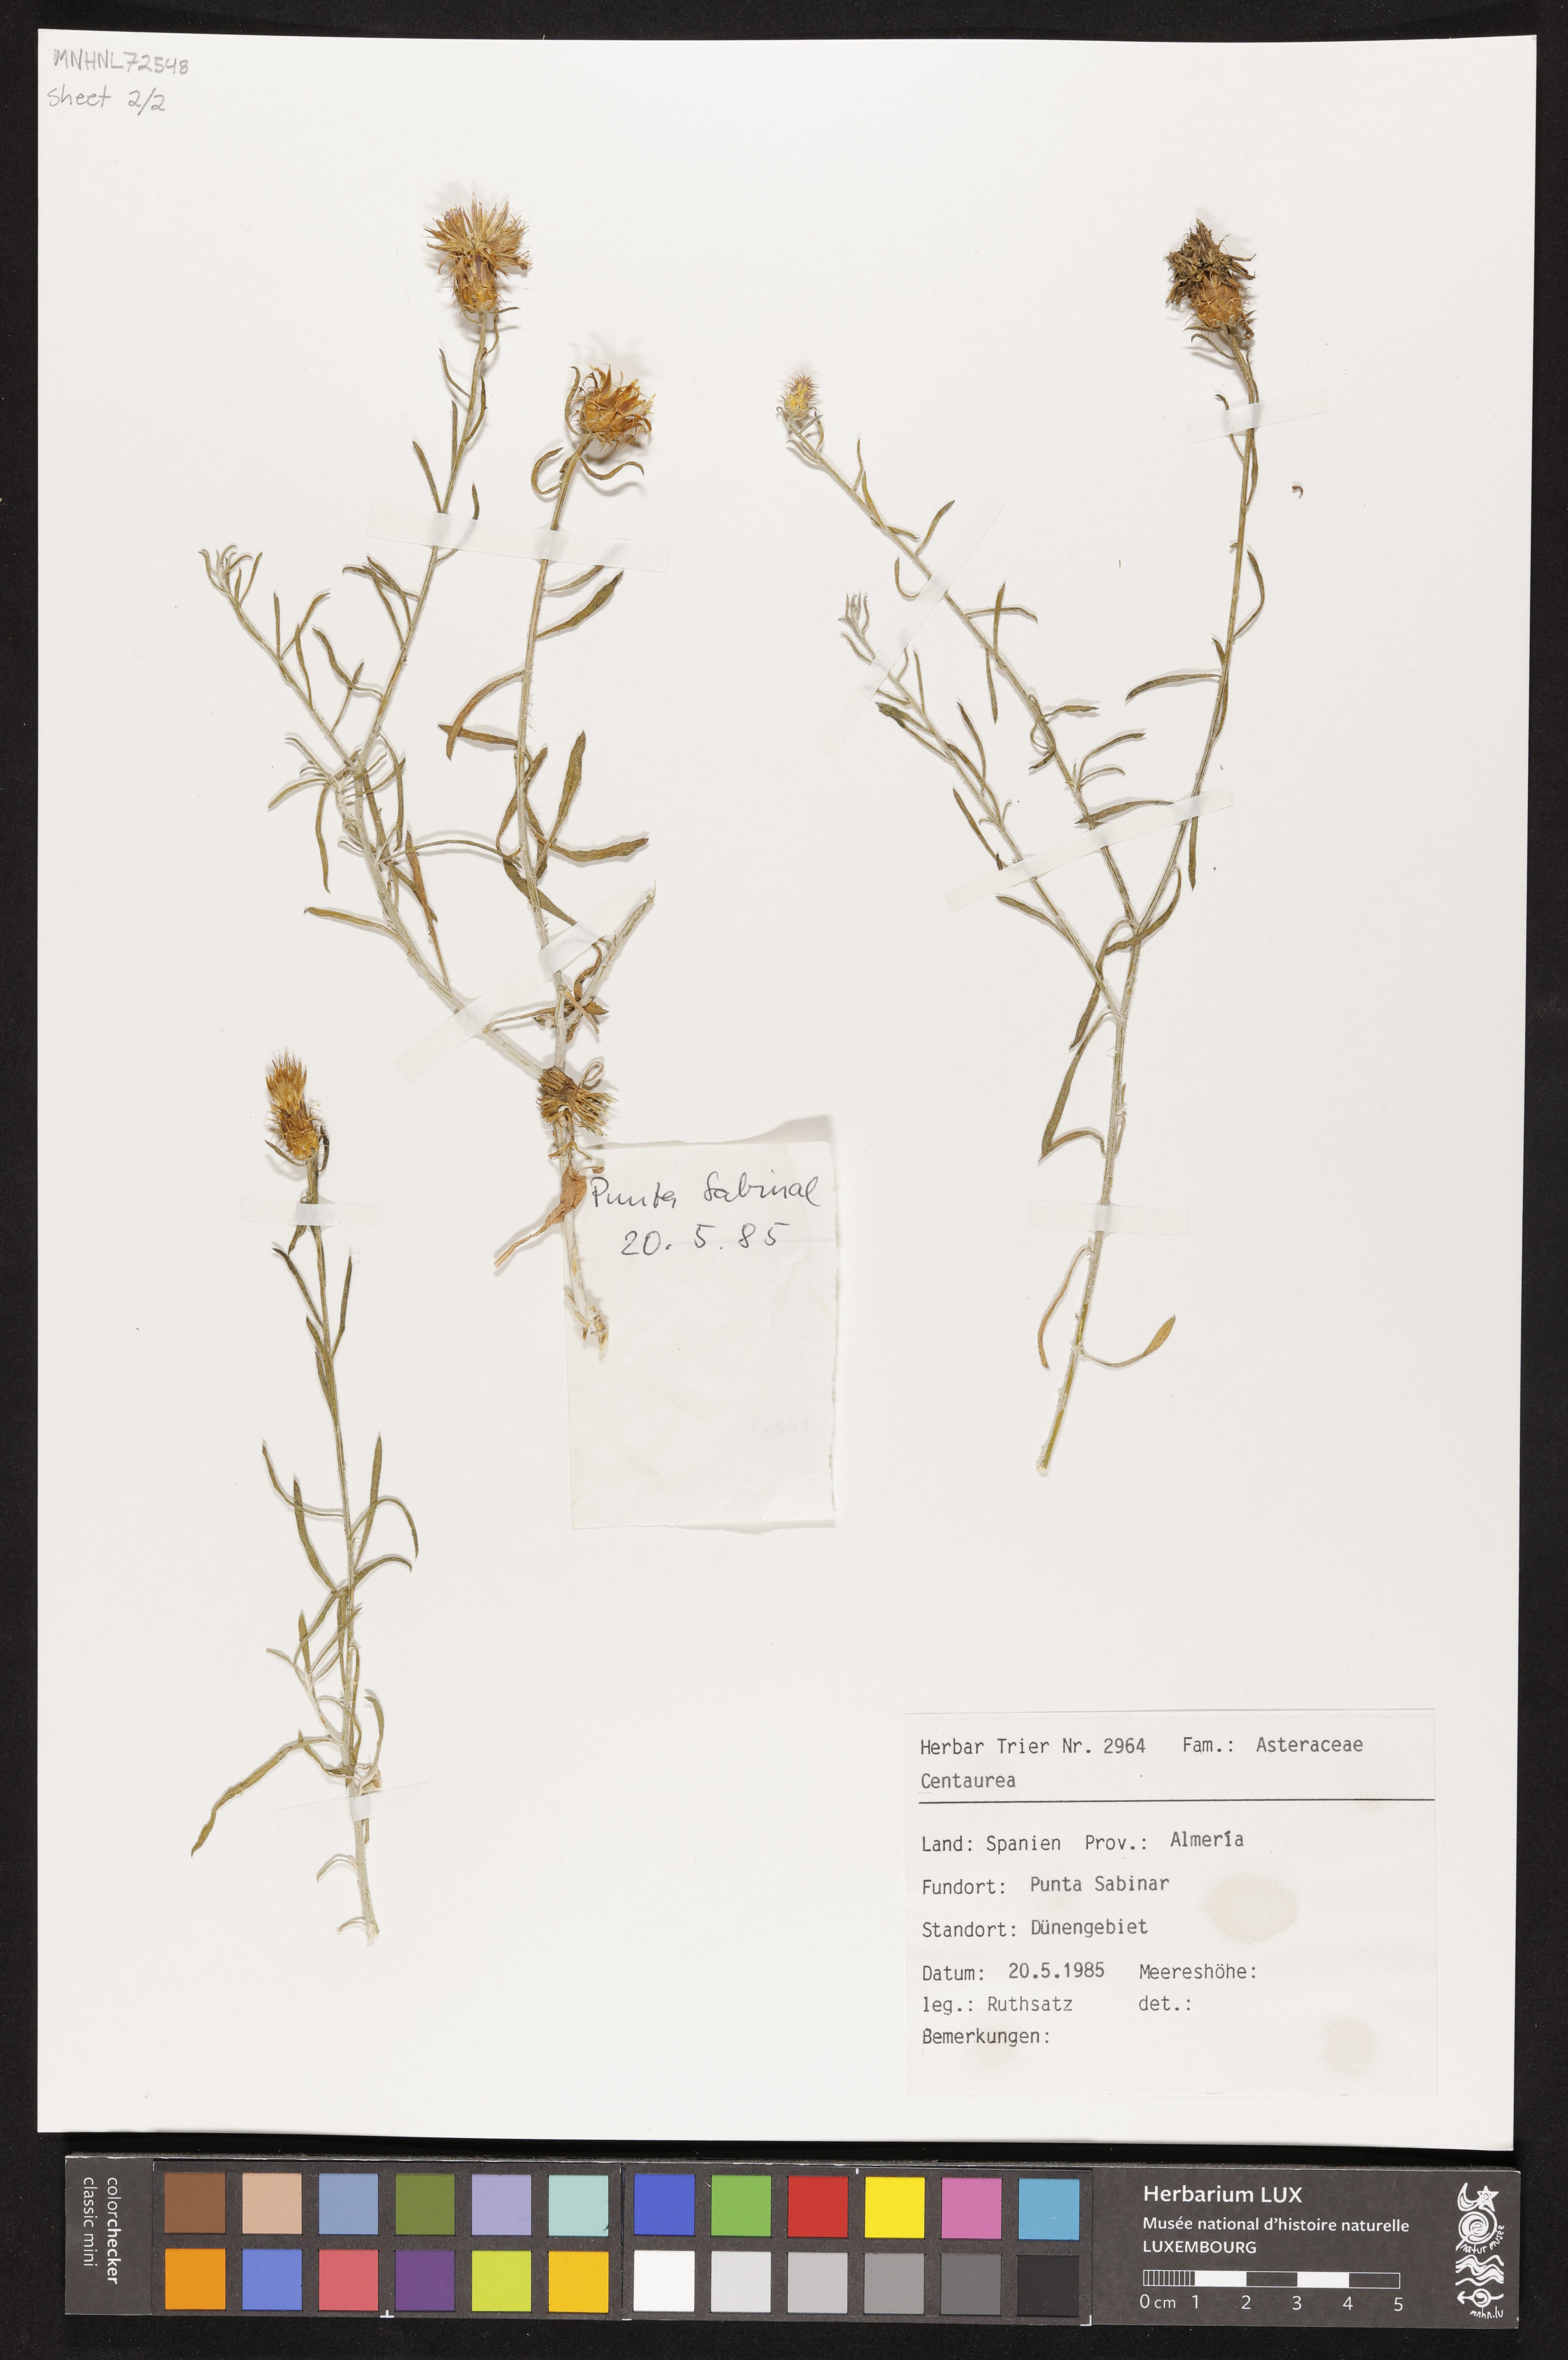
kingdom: Plantae
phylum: Tracheophyta
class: Magnoliopsida
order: Asterales
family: Asteraceae
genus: Centaurea
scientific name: Centaurea
